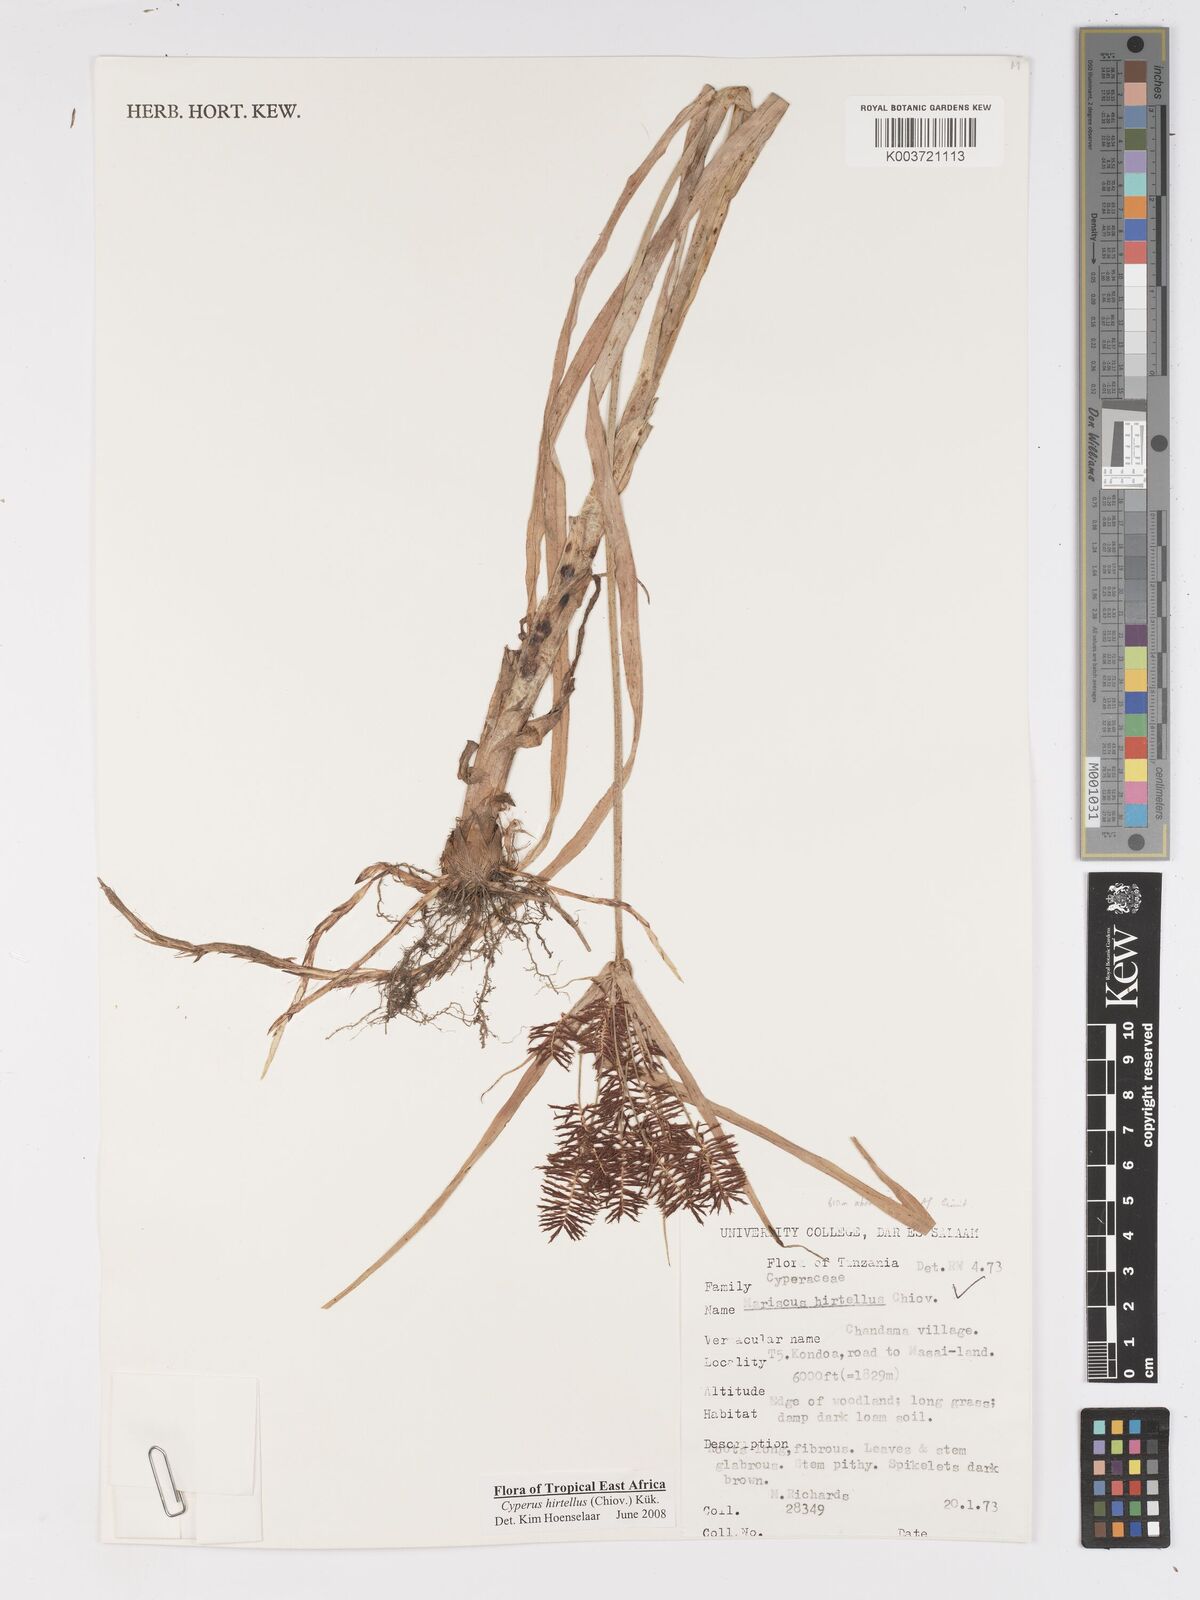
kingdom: Plantae
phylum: Tracheophyta
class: Liliopsida
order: Poales
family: Cyperaceae
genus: Cyperus
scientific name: Cyperus hirtellus
